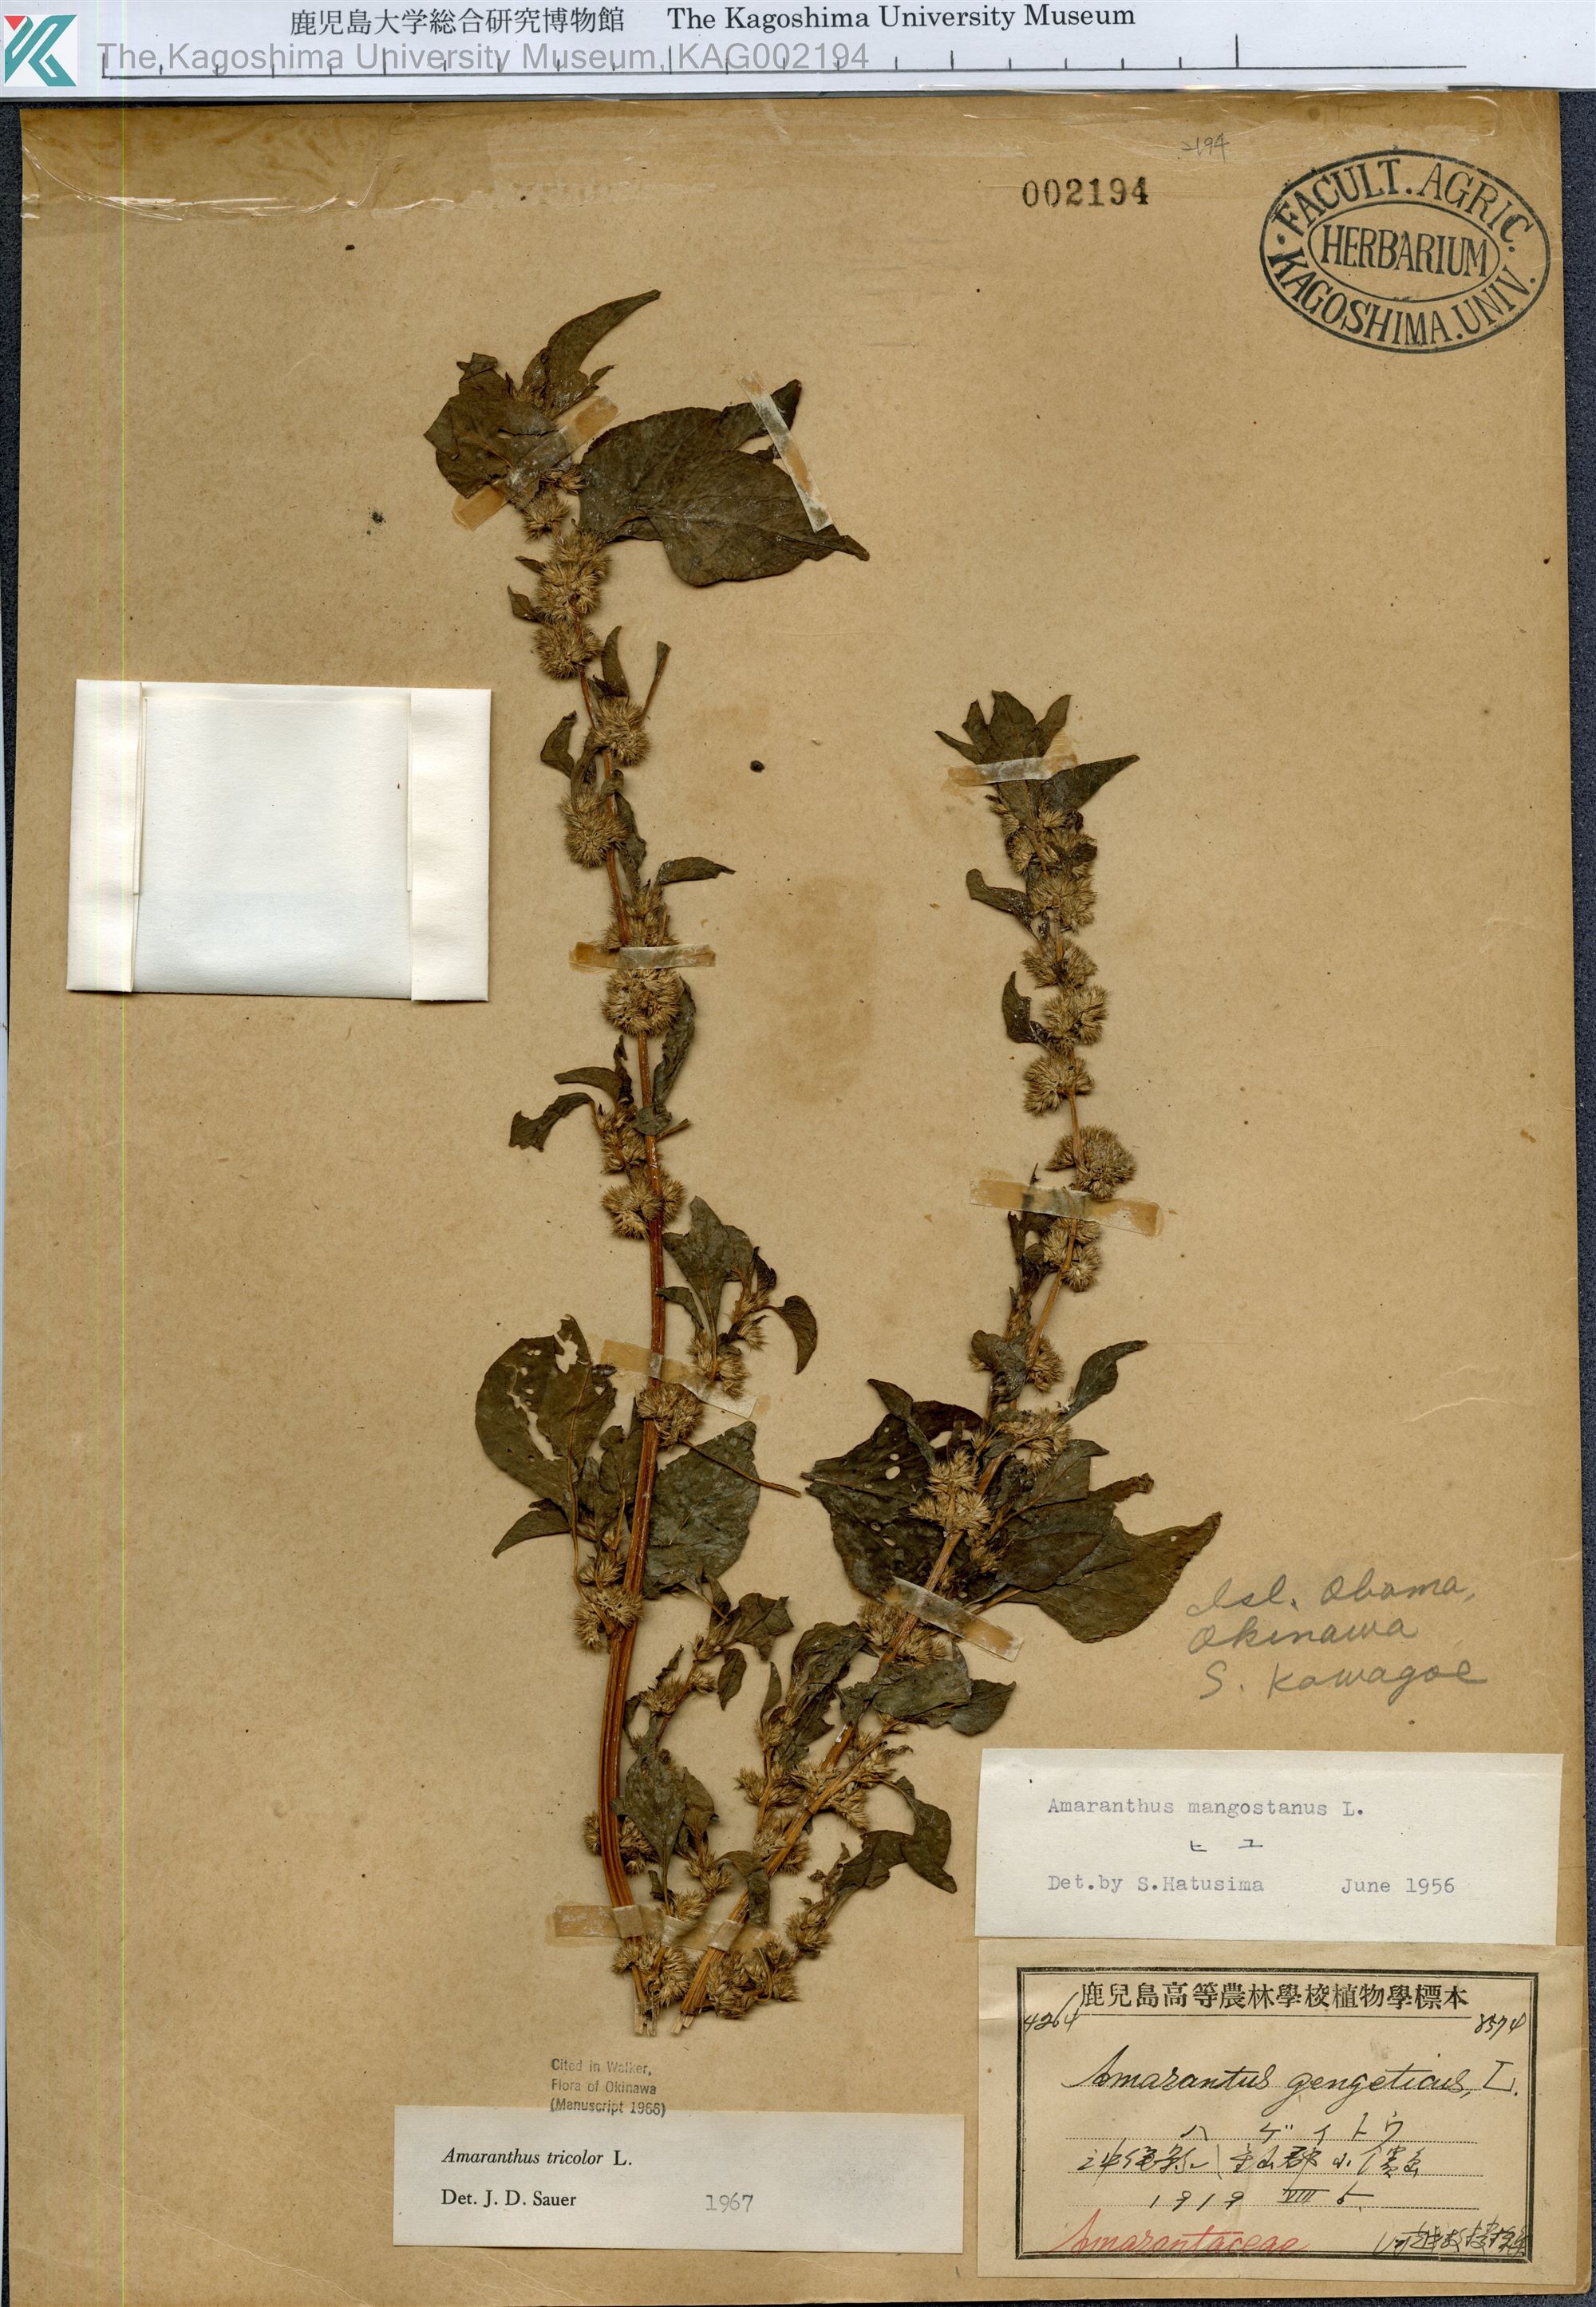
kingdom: Plantae
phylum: Tracheophyta
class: Magnoliopsida
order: Caryophyllales
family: Amaranthaceae
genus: Amaranthus
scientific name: Amaranthus tricolor
